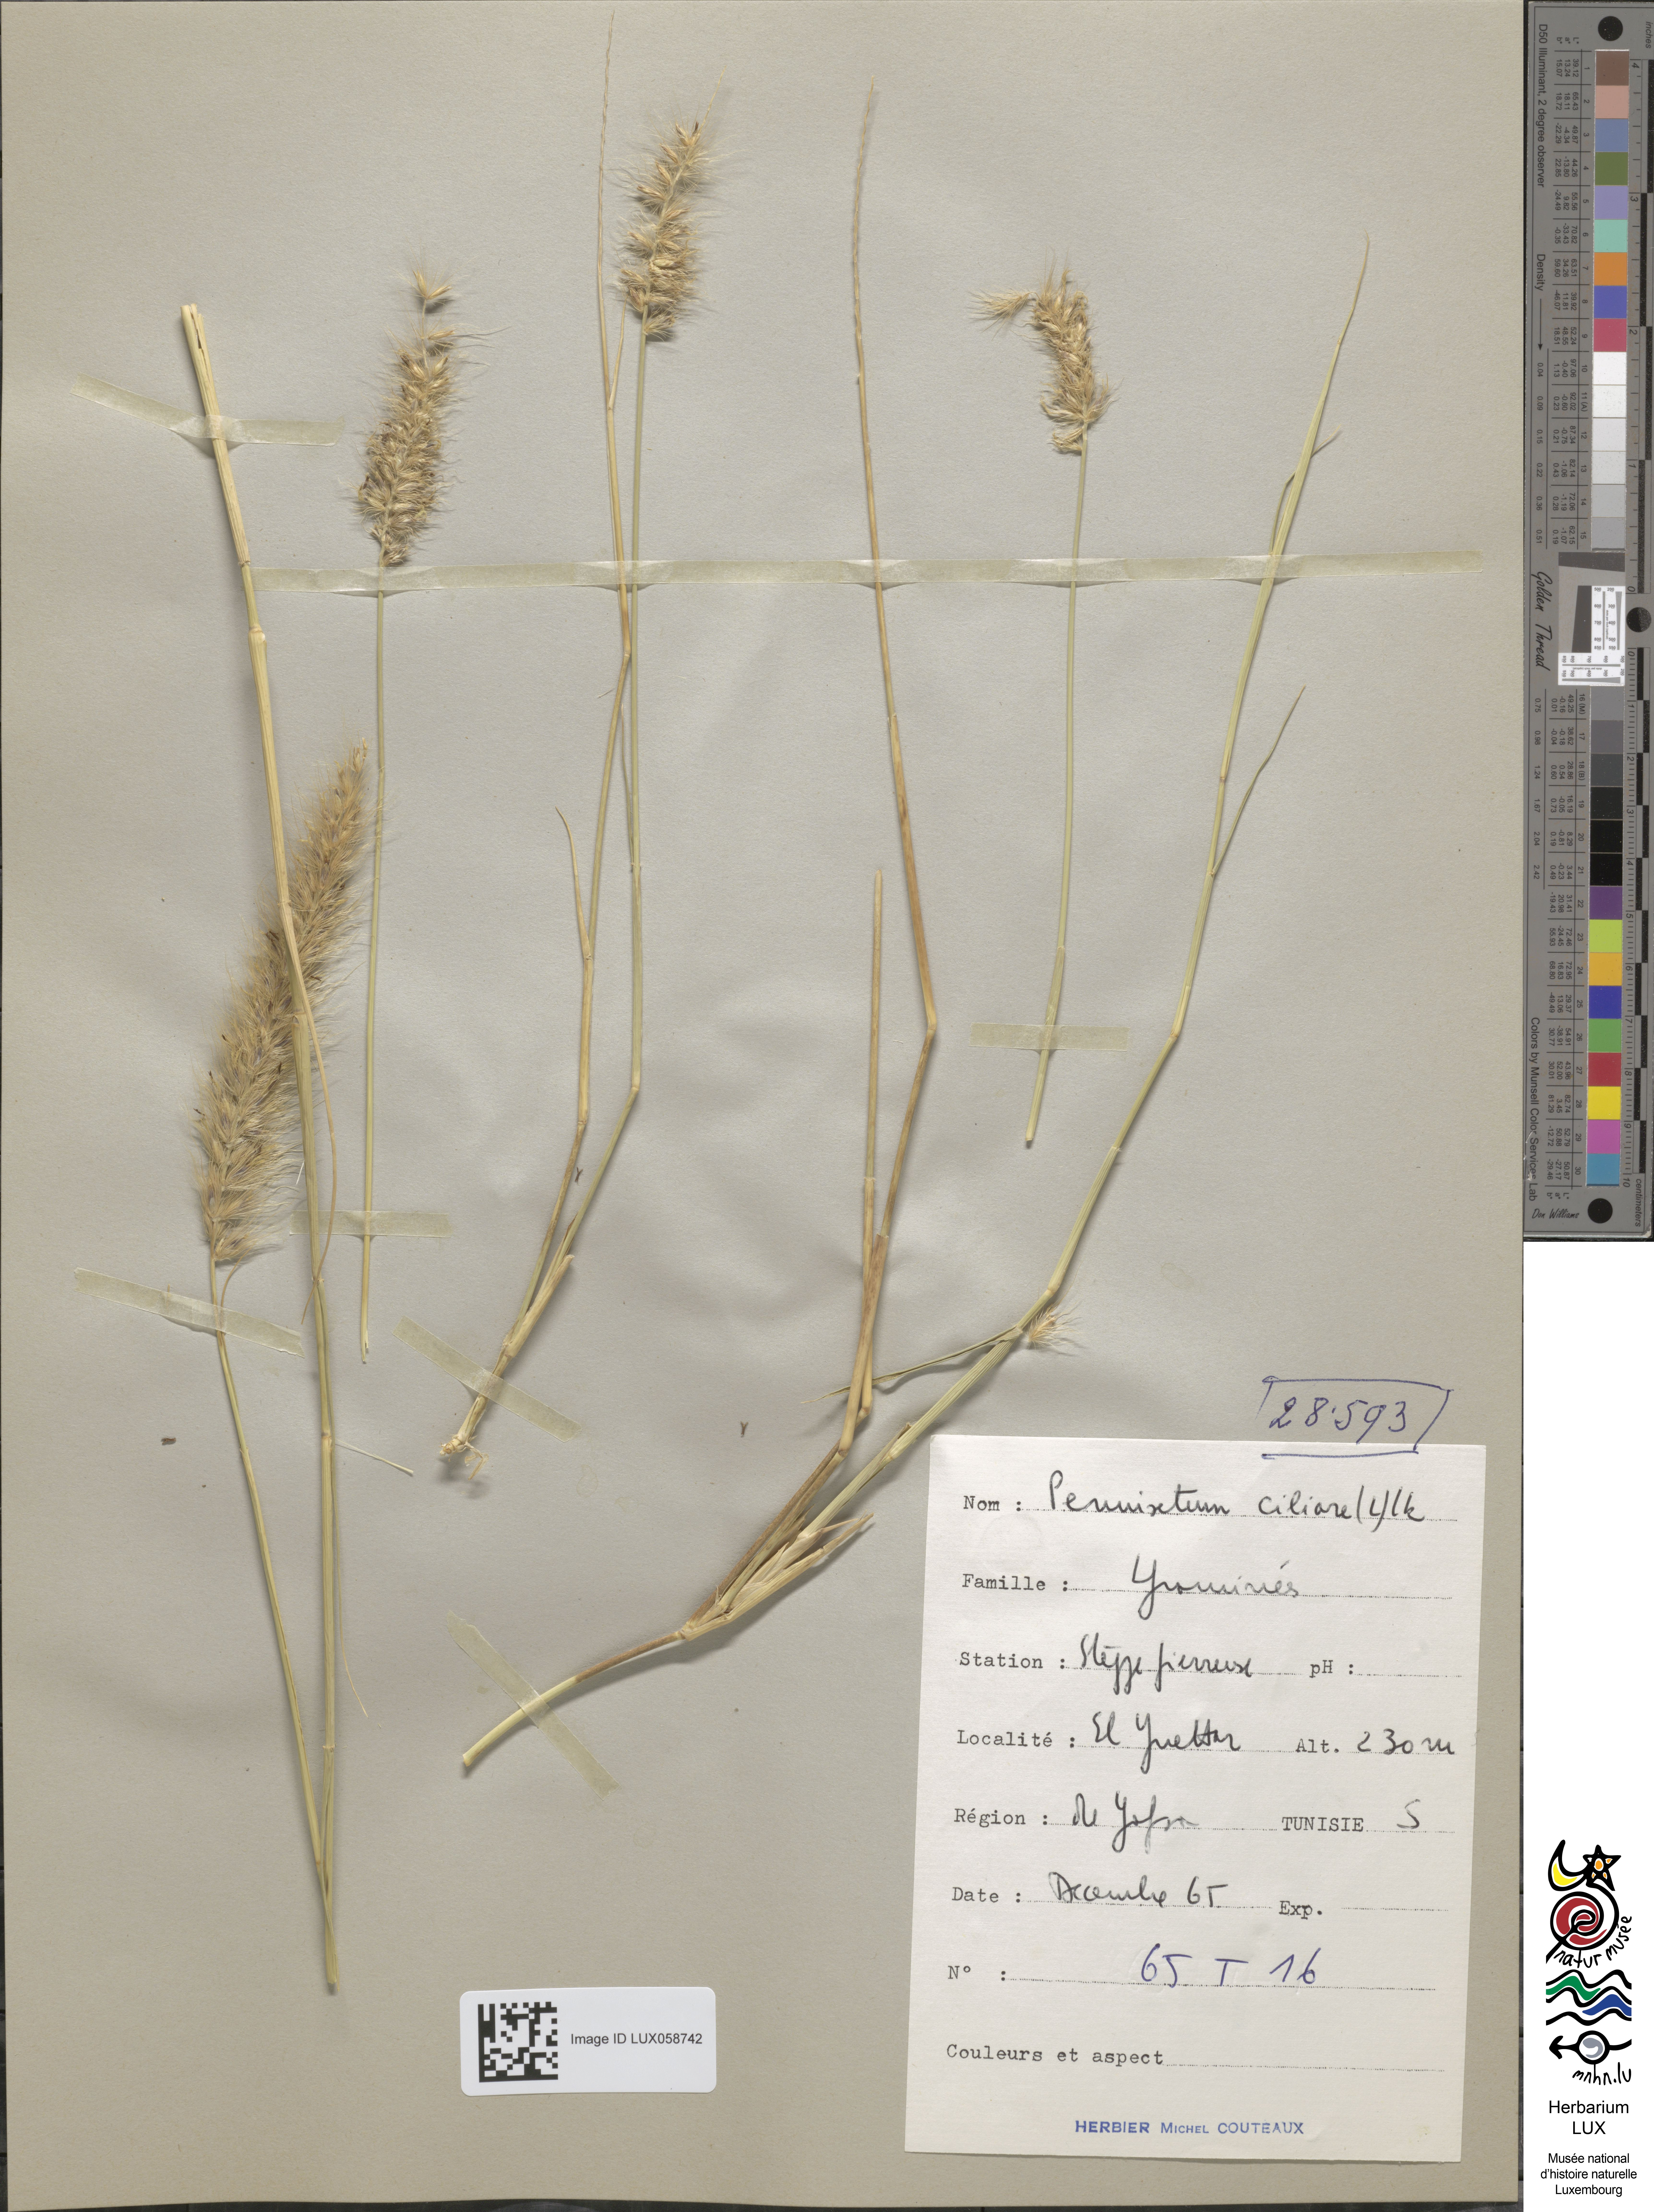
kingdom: Plantae
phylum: Tracheophyta
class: Liliopsida
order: Poales
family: Poaceae
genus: Cenchrus
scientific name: Cenchrus ciliaris
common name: Buffelgrass
